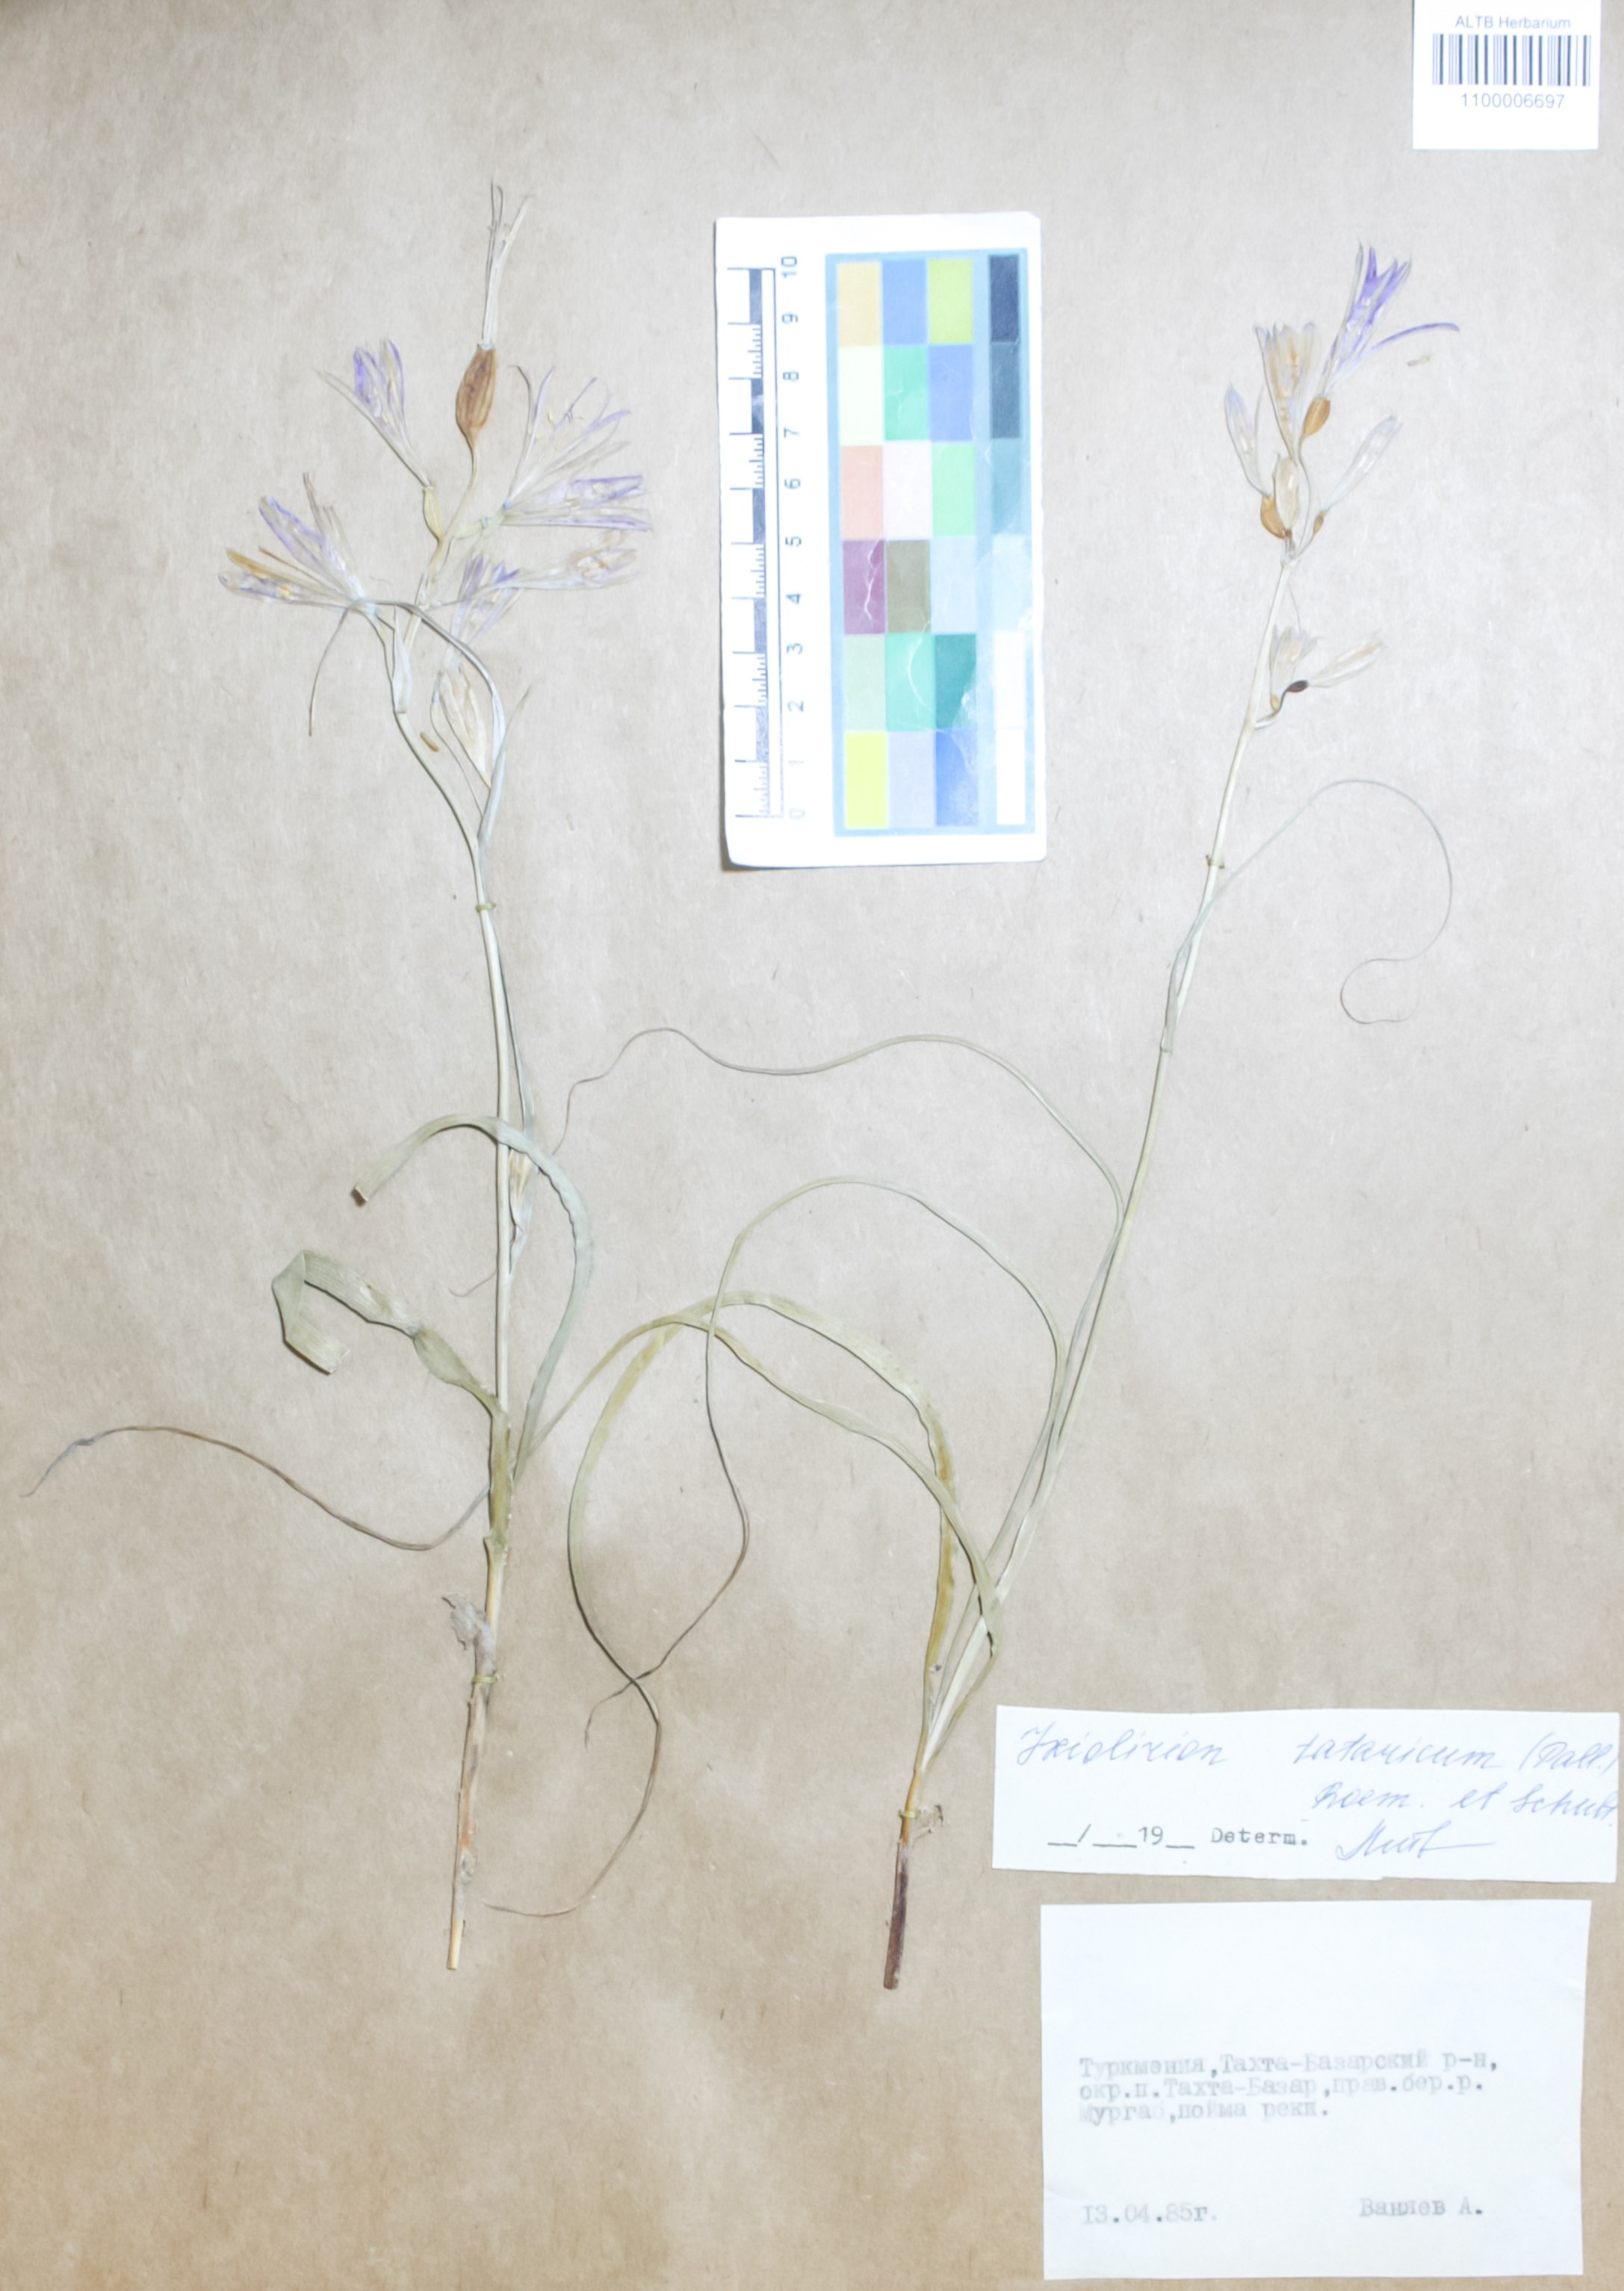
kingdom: Plantae
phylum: Tracheophyta
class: Liliopsida
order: Asparagales
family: Ixioliriaceae
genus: Ixiolirion
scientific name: Ixiolirion tataricum
